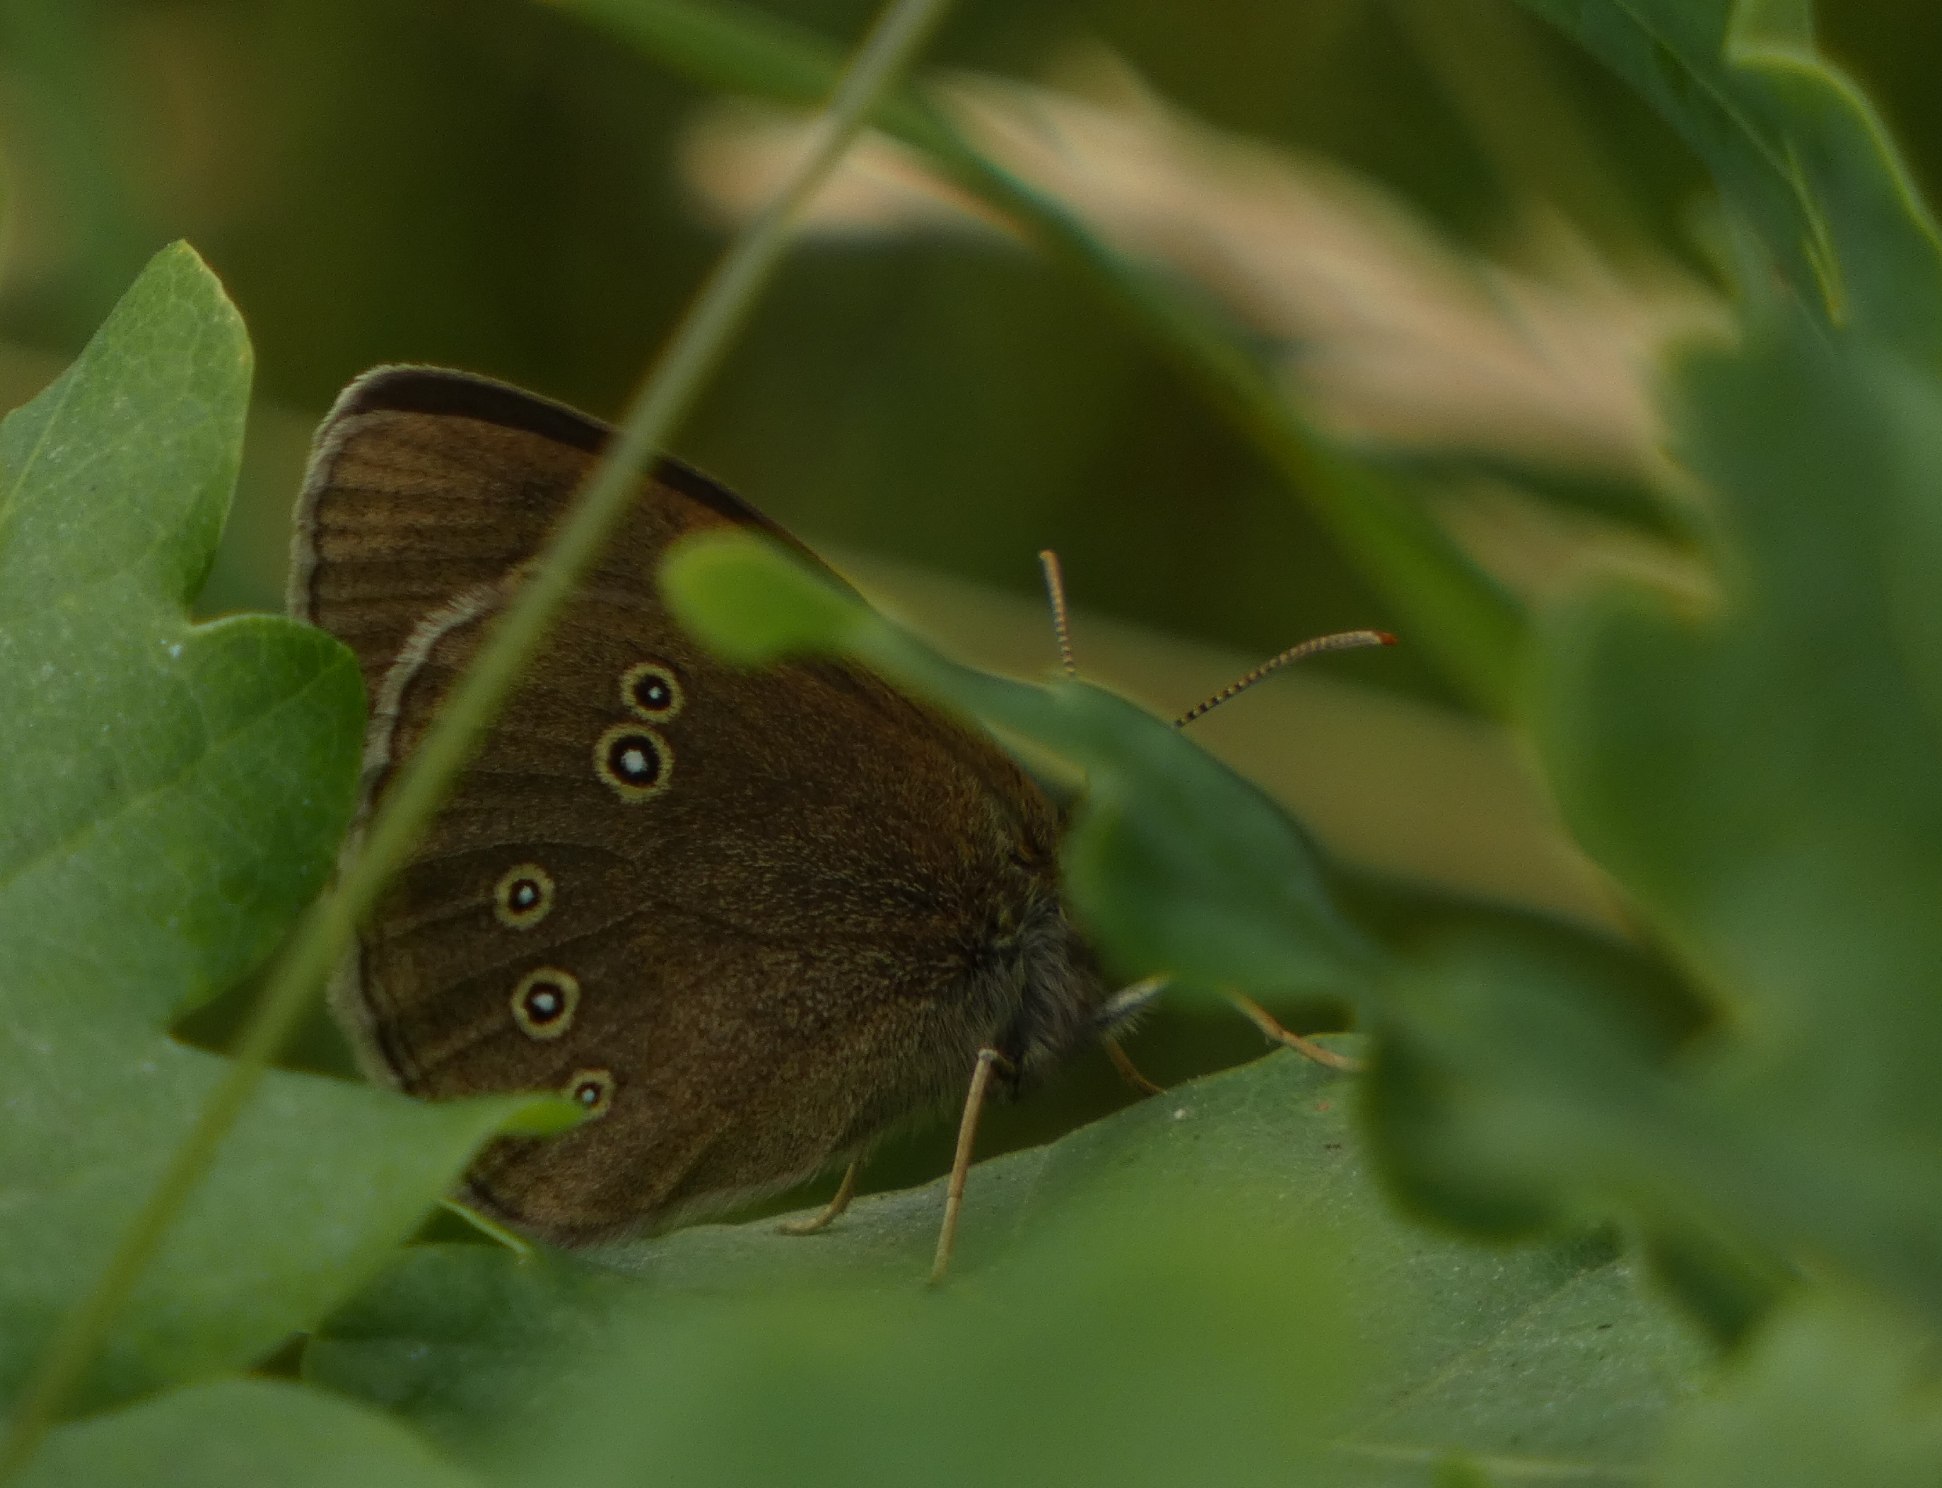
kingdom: Animalia
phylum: Arthropoda
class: Insecta
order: Lepidoptera
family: Nymphalidae
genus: Aphantopus
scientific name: Aphantopus hyperantus
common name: Engrandøje
